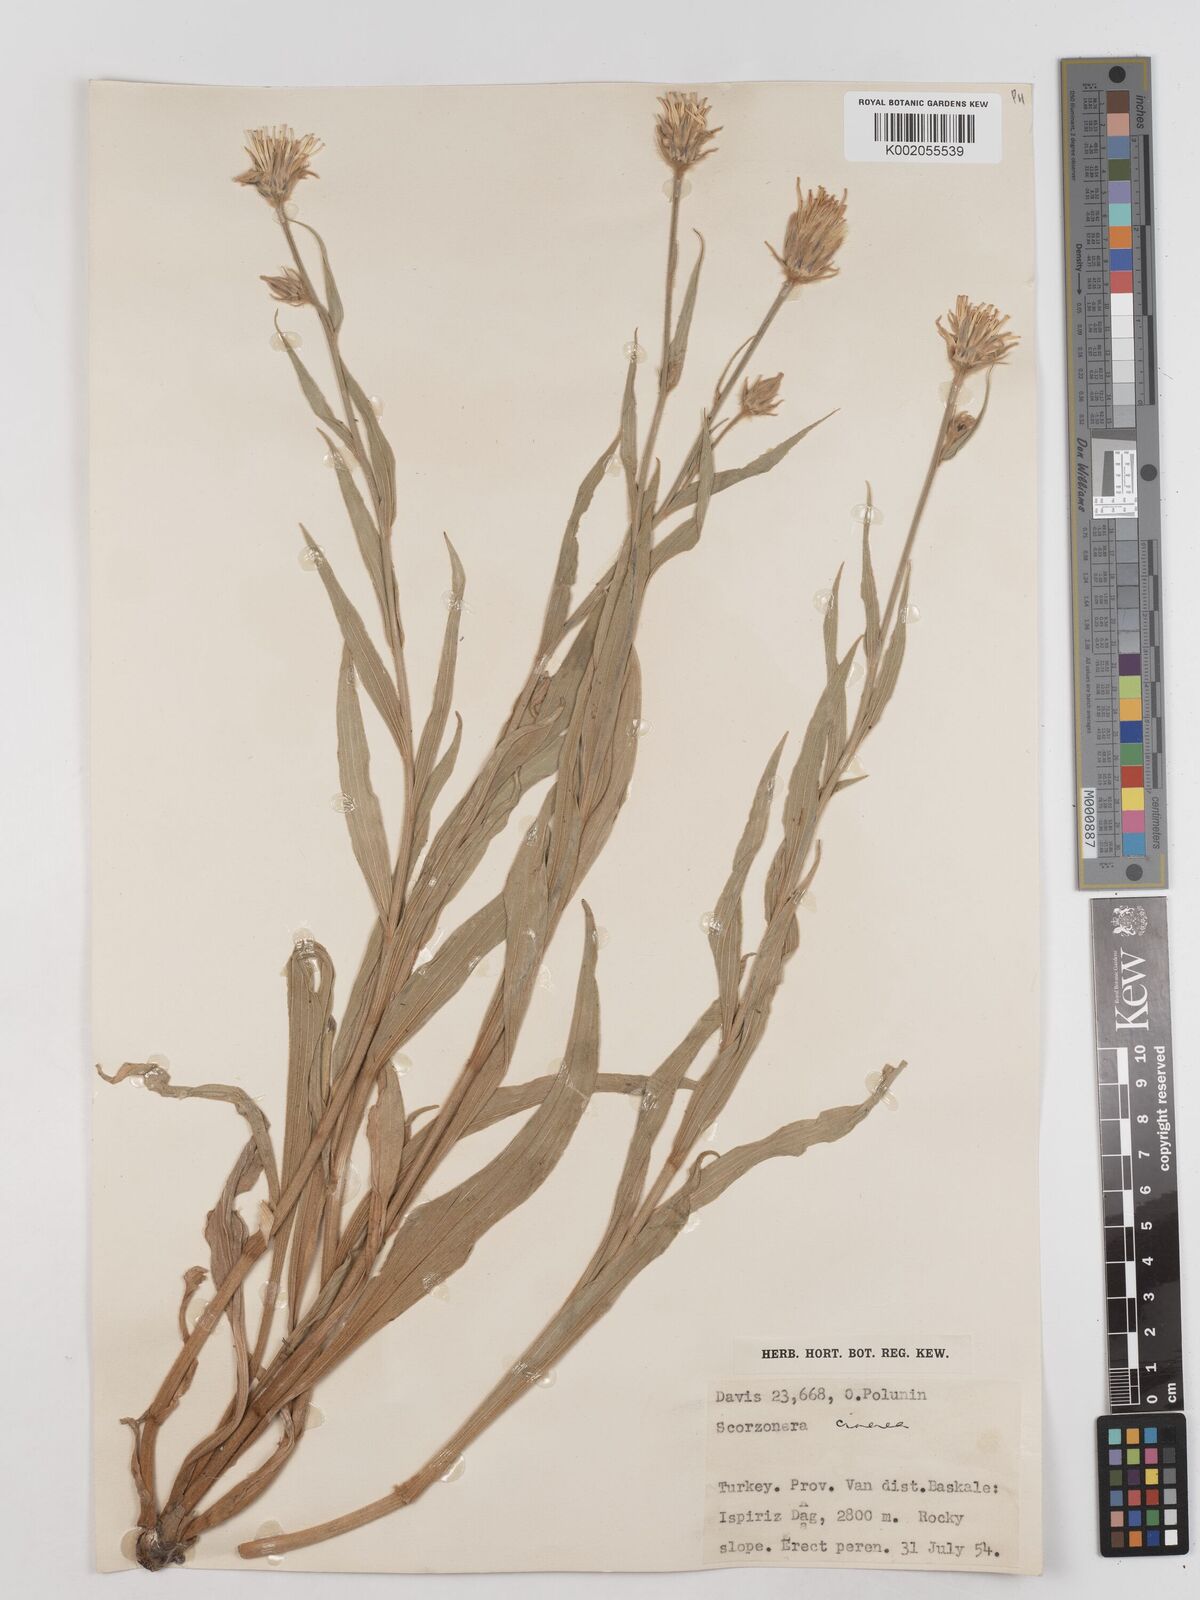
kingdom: Plantae
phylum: Tracheophyta
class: Magnoliopsida
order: Asterales
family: Asteraceae
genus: Cigdemia
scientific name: Cigdemia cinerea
